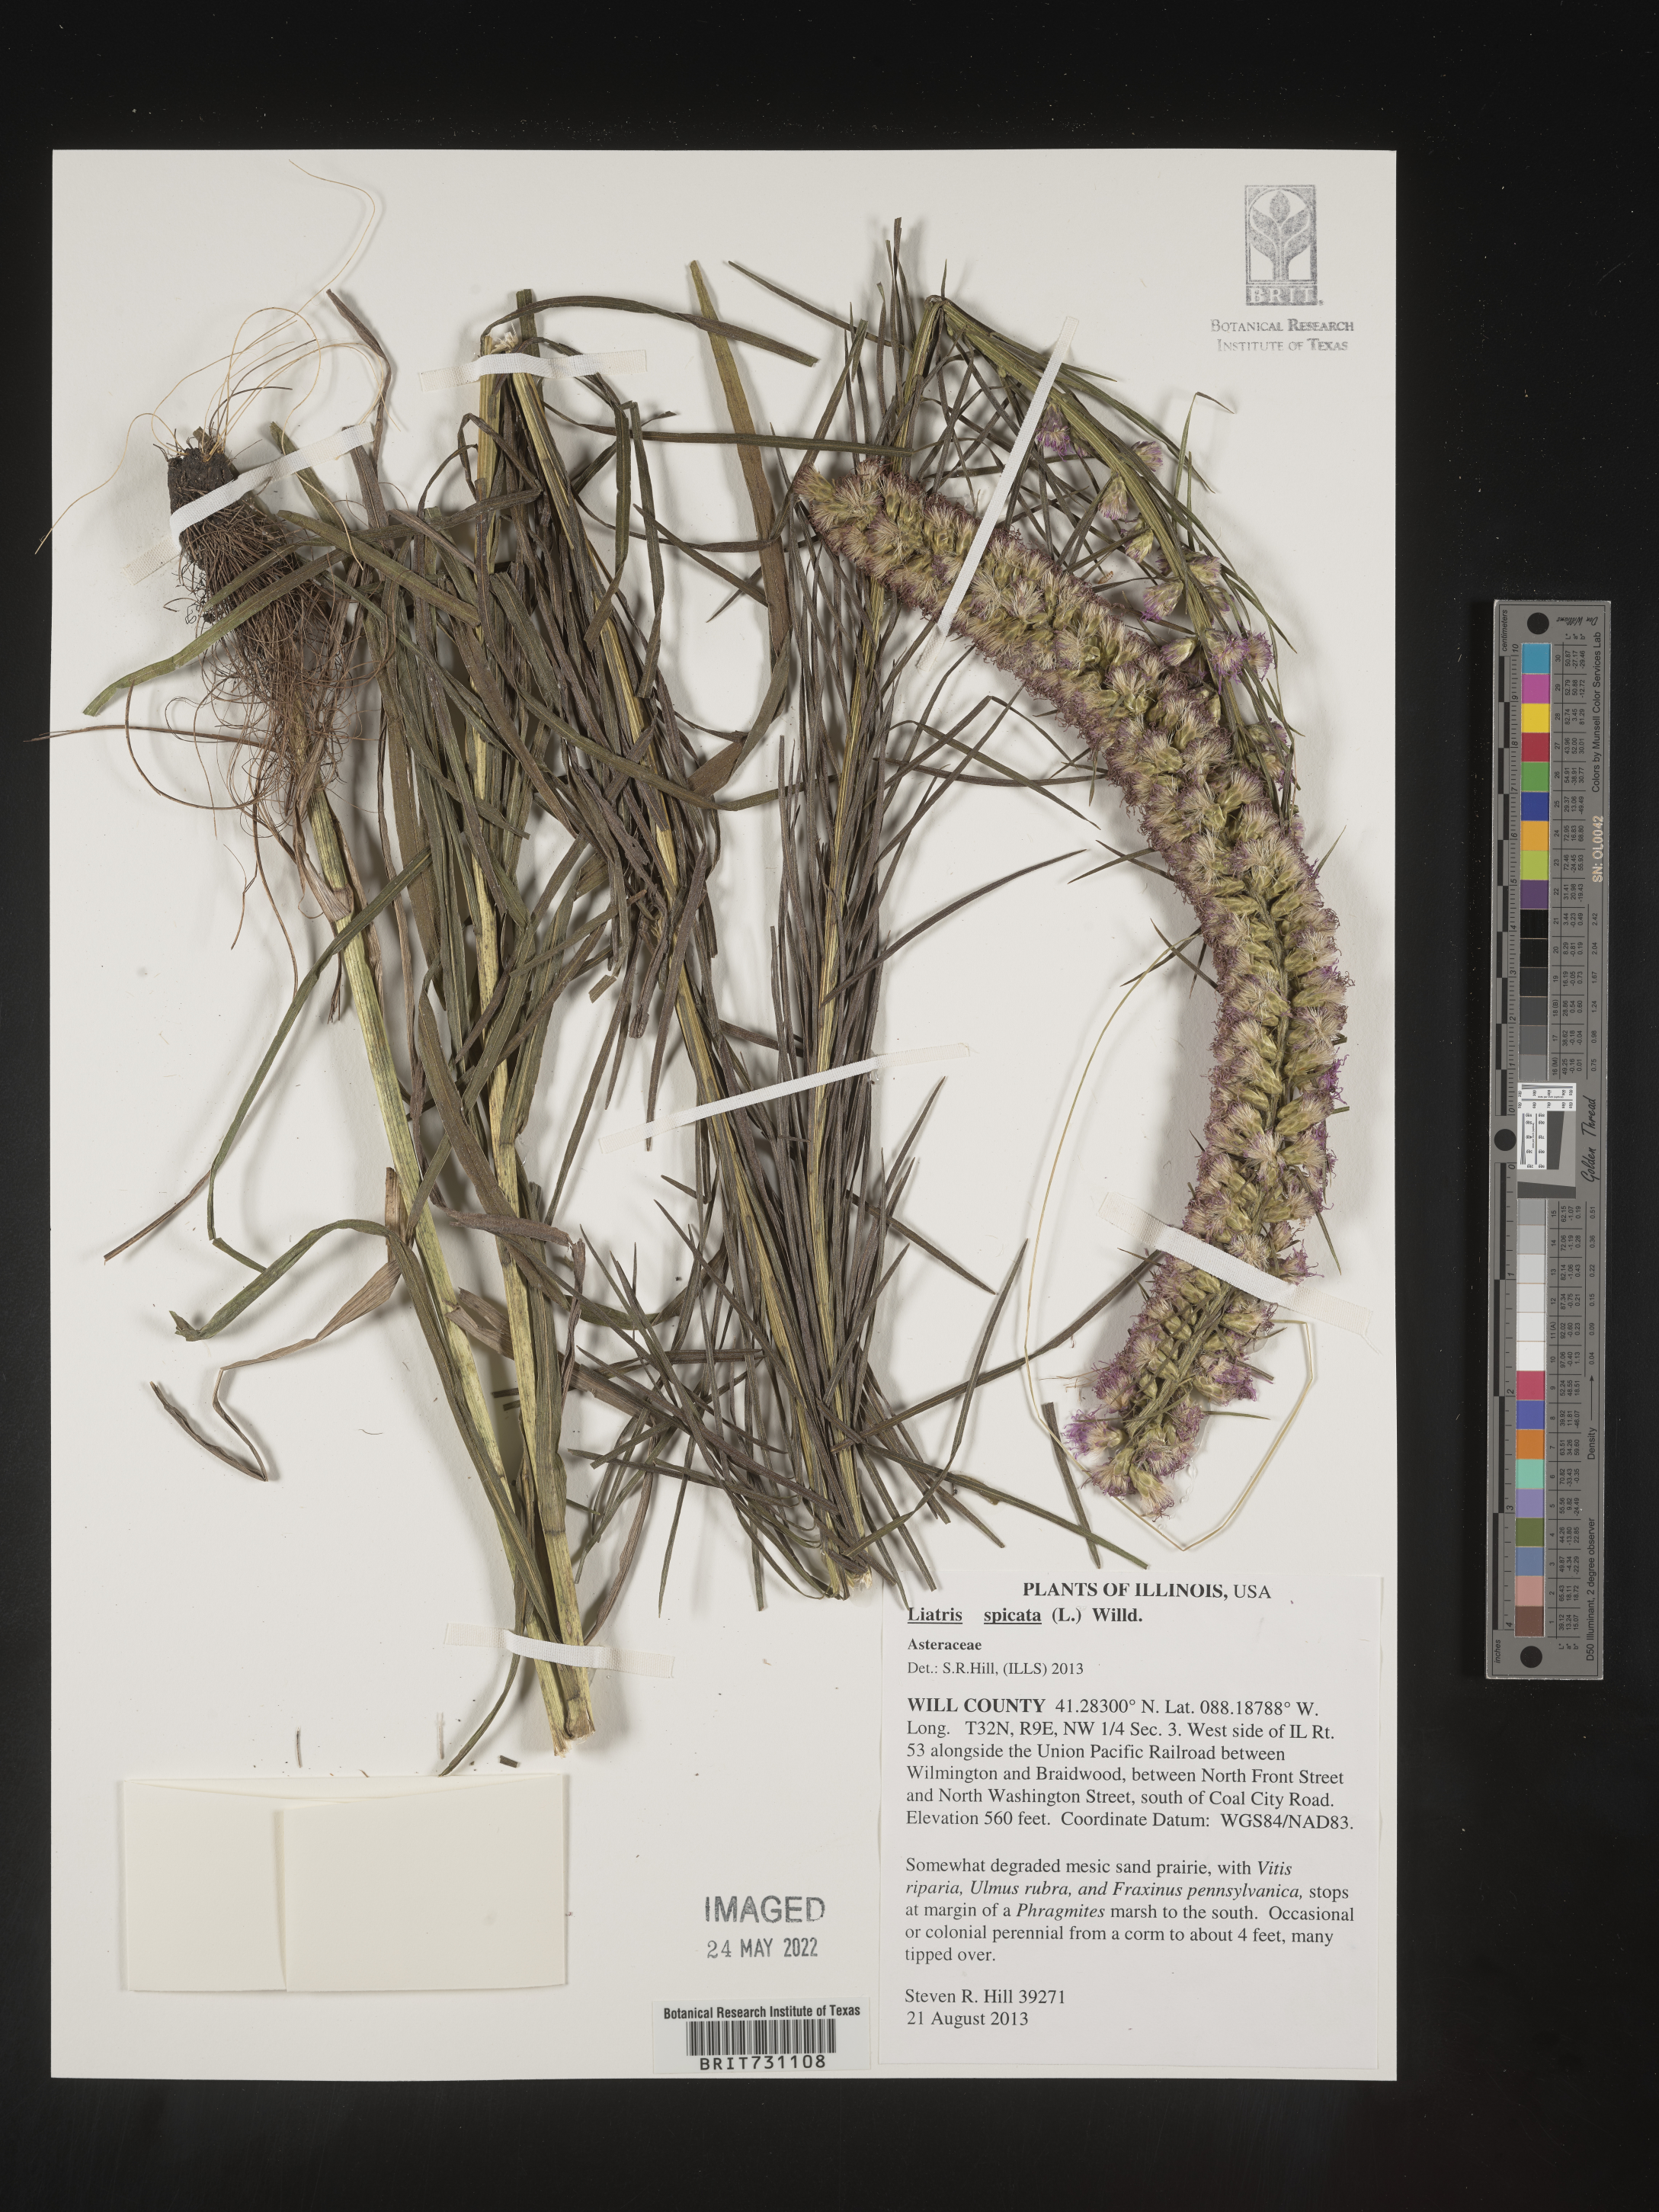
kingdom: Plantae
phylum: Tracheophyta
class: Magnoliopsida
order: Asterales
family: Asteraceae
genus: Liatris
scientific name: Liatris spicata
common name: Florist gayfeather
